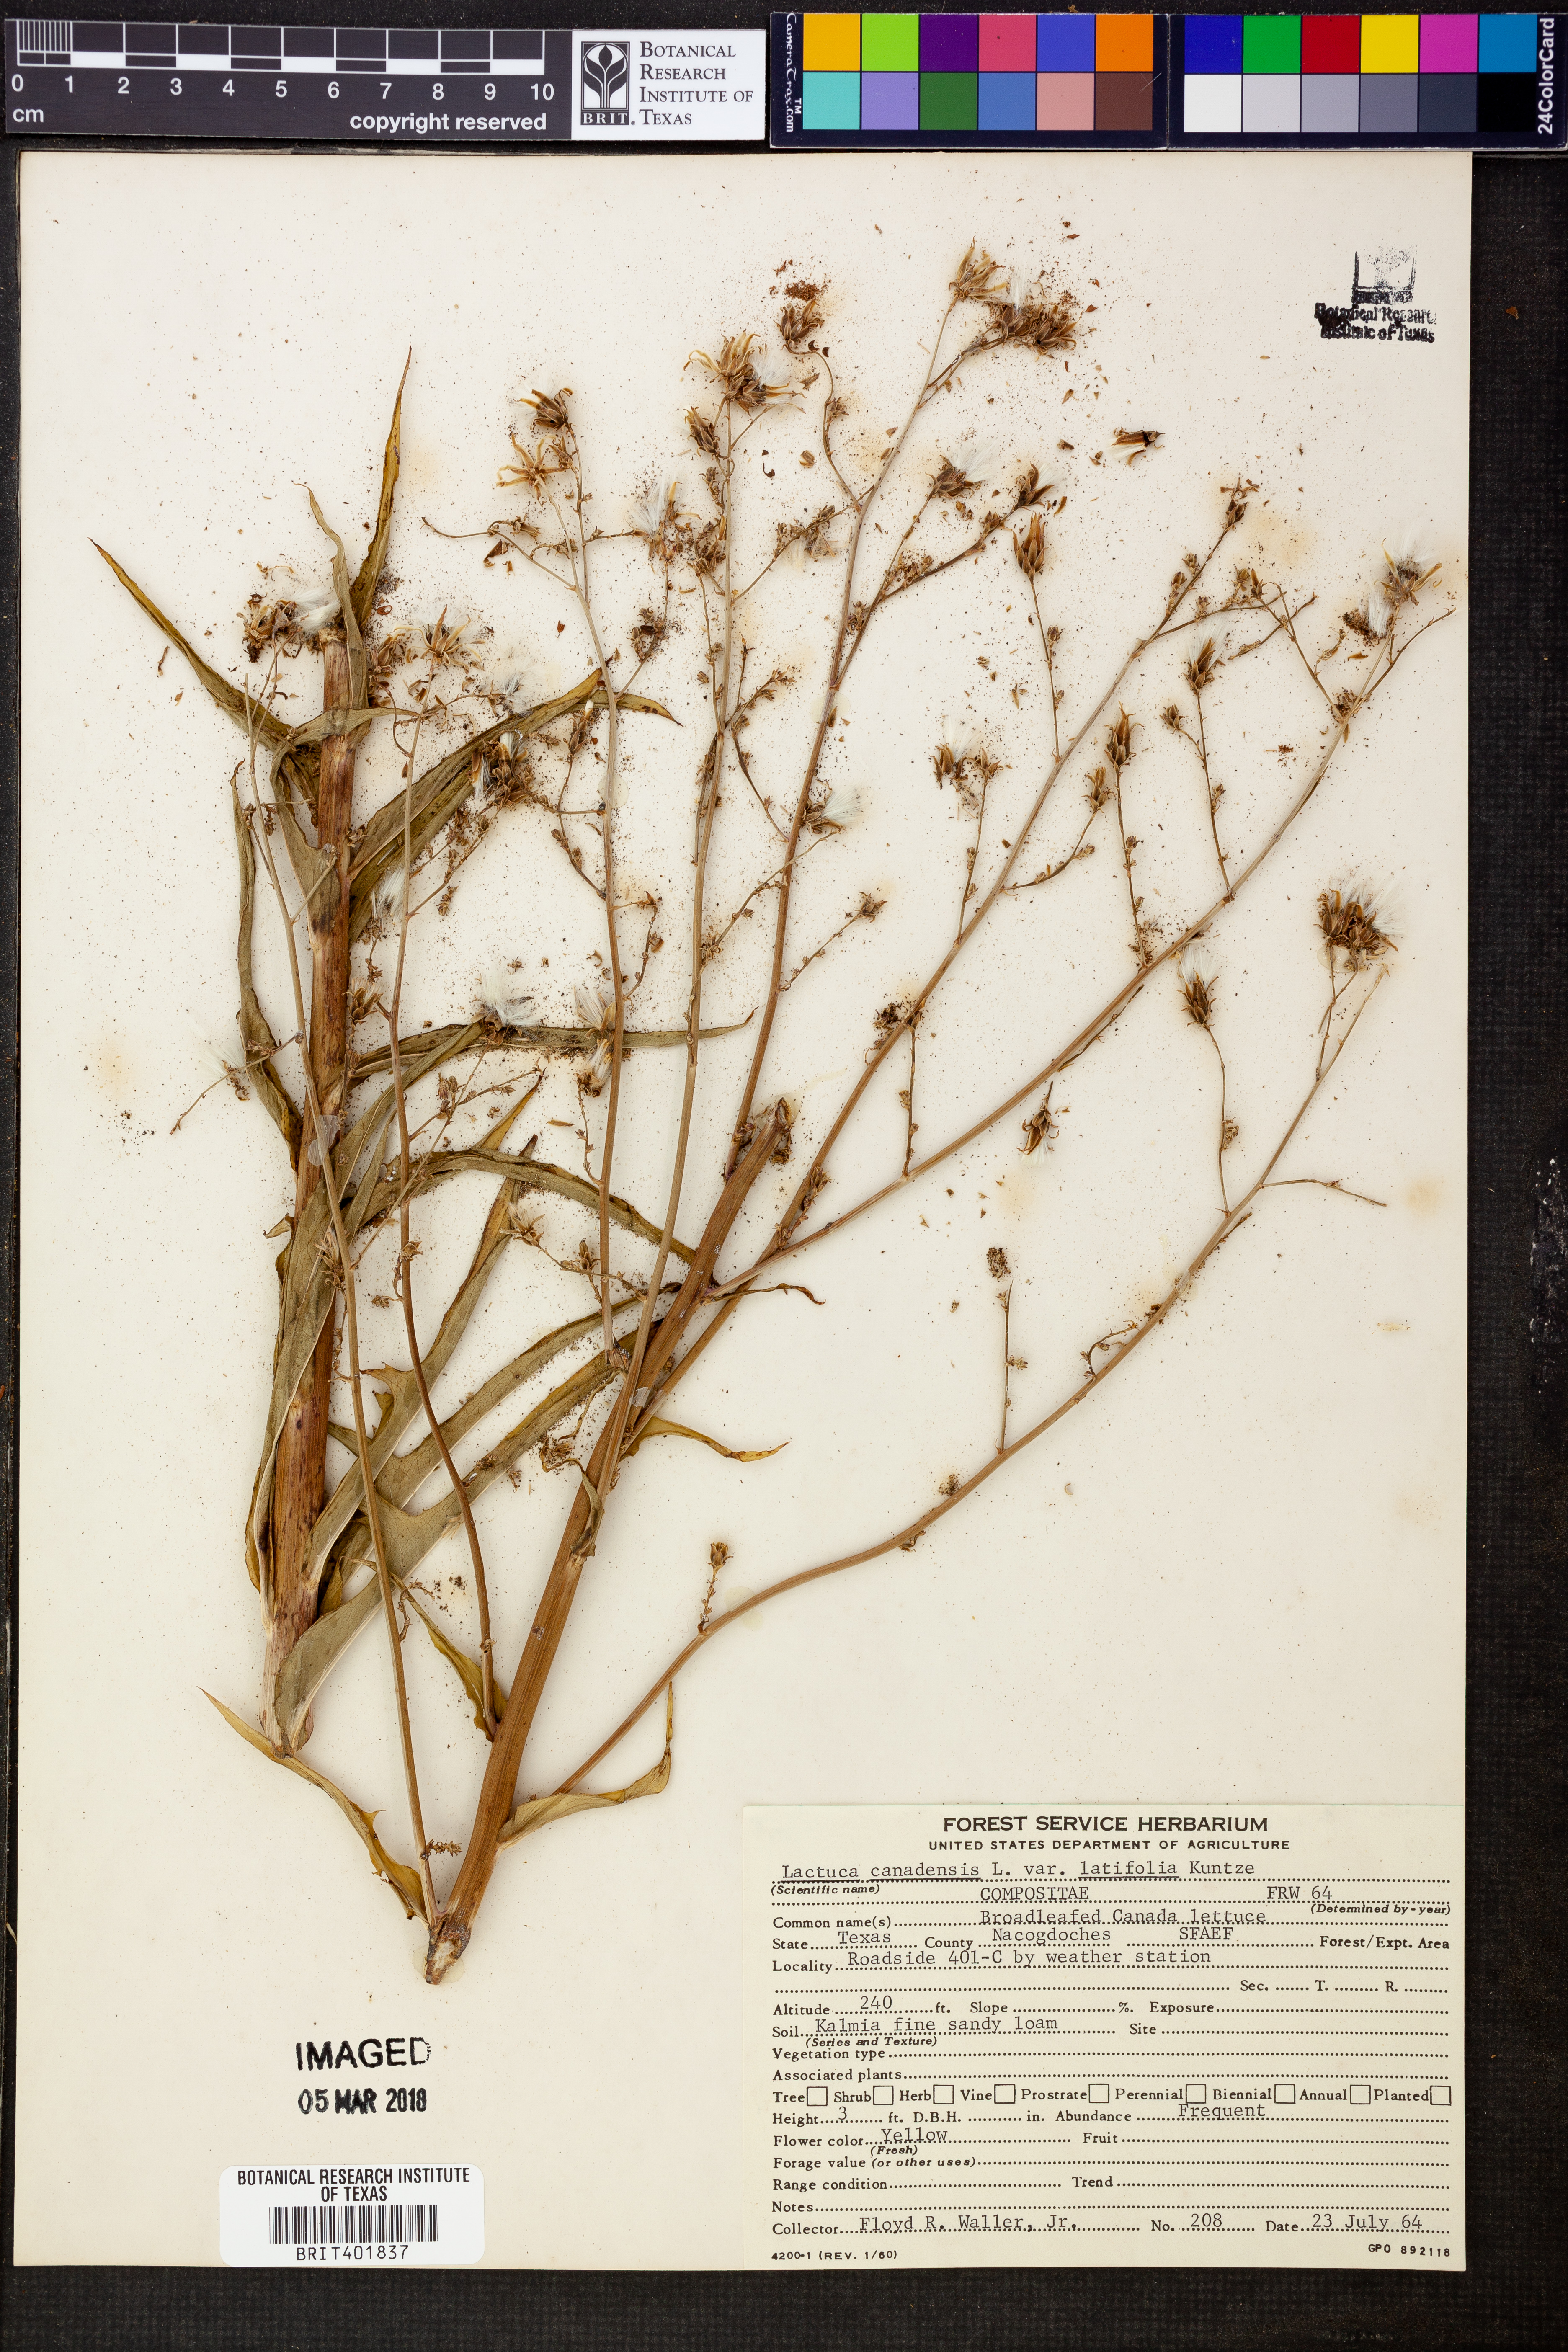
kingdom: Plantae
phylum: Tracheophyta
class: Magnoliopsida
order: Asterales
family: Asteraceae
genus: Lactuca
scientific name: Lactuca canadensis
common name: Canada lettuce
